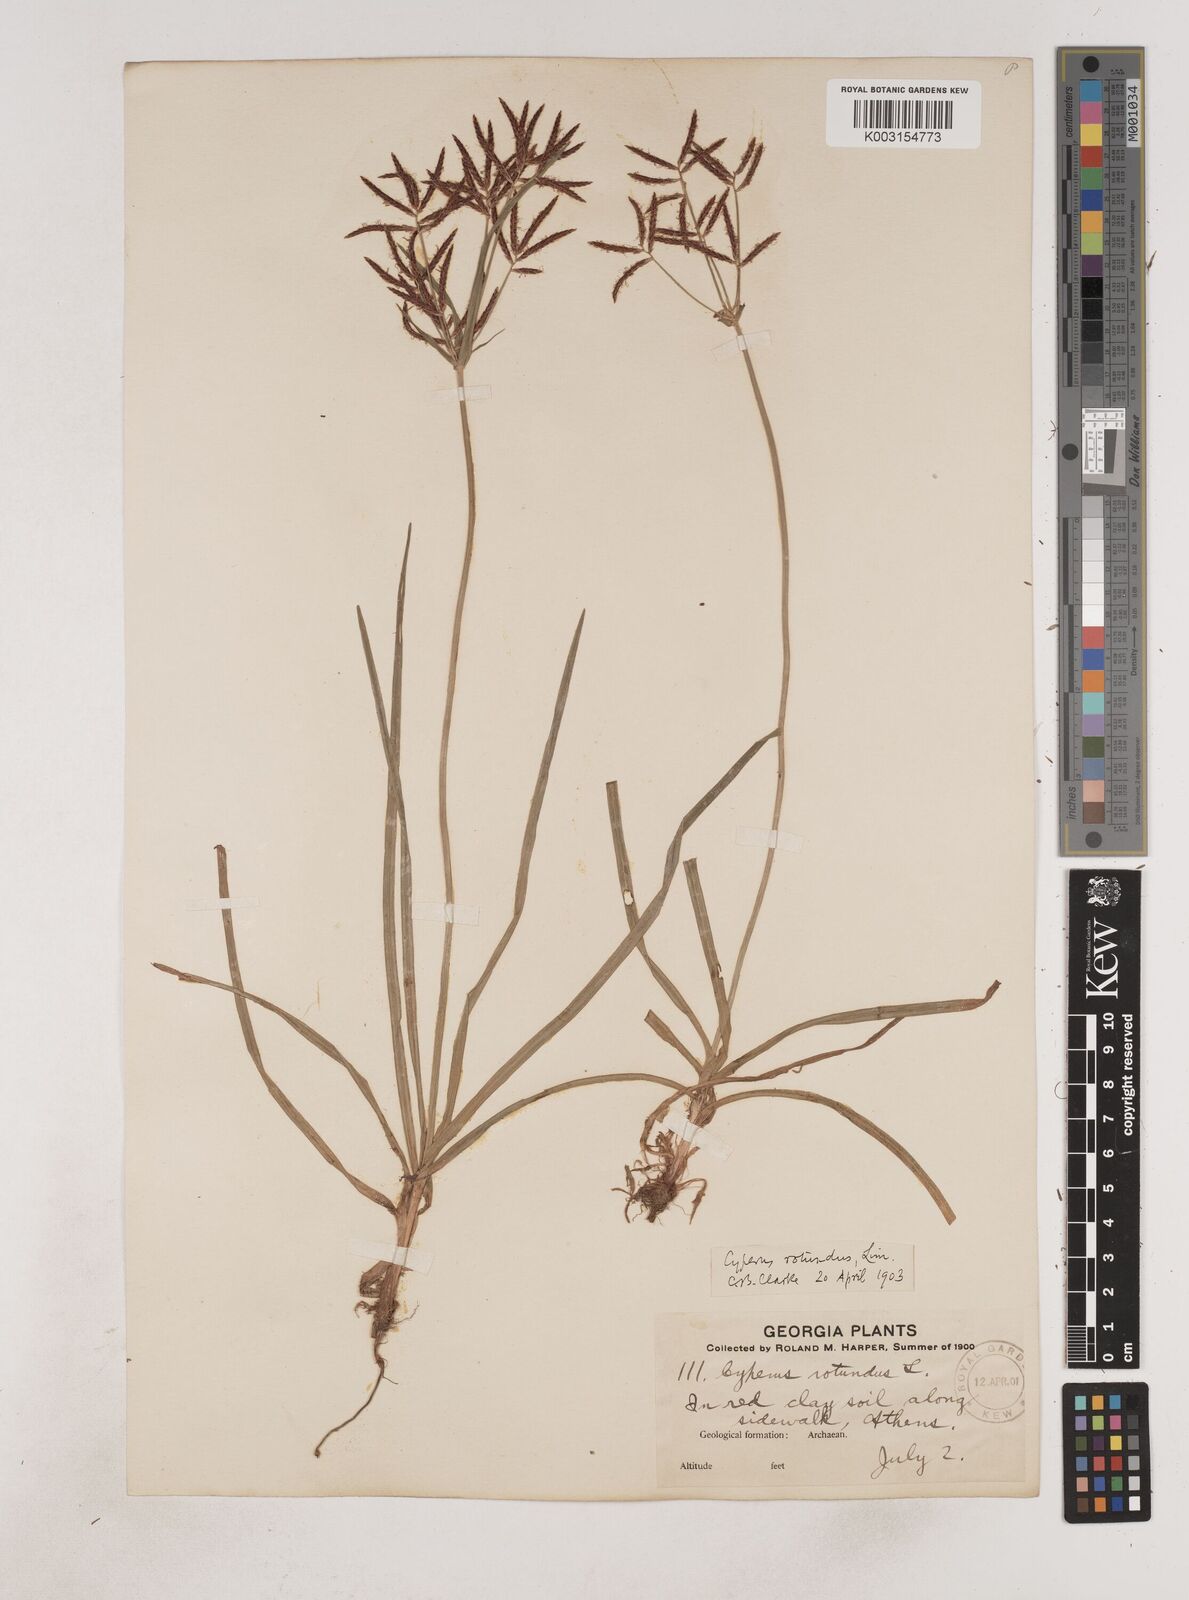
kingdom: Plantae
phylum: Tracheophyta
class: Liliopsida
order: Poales
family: Cyperaceae
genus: Cyperus
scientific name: Cyperus rotundus
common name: Nutgrass
